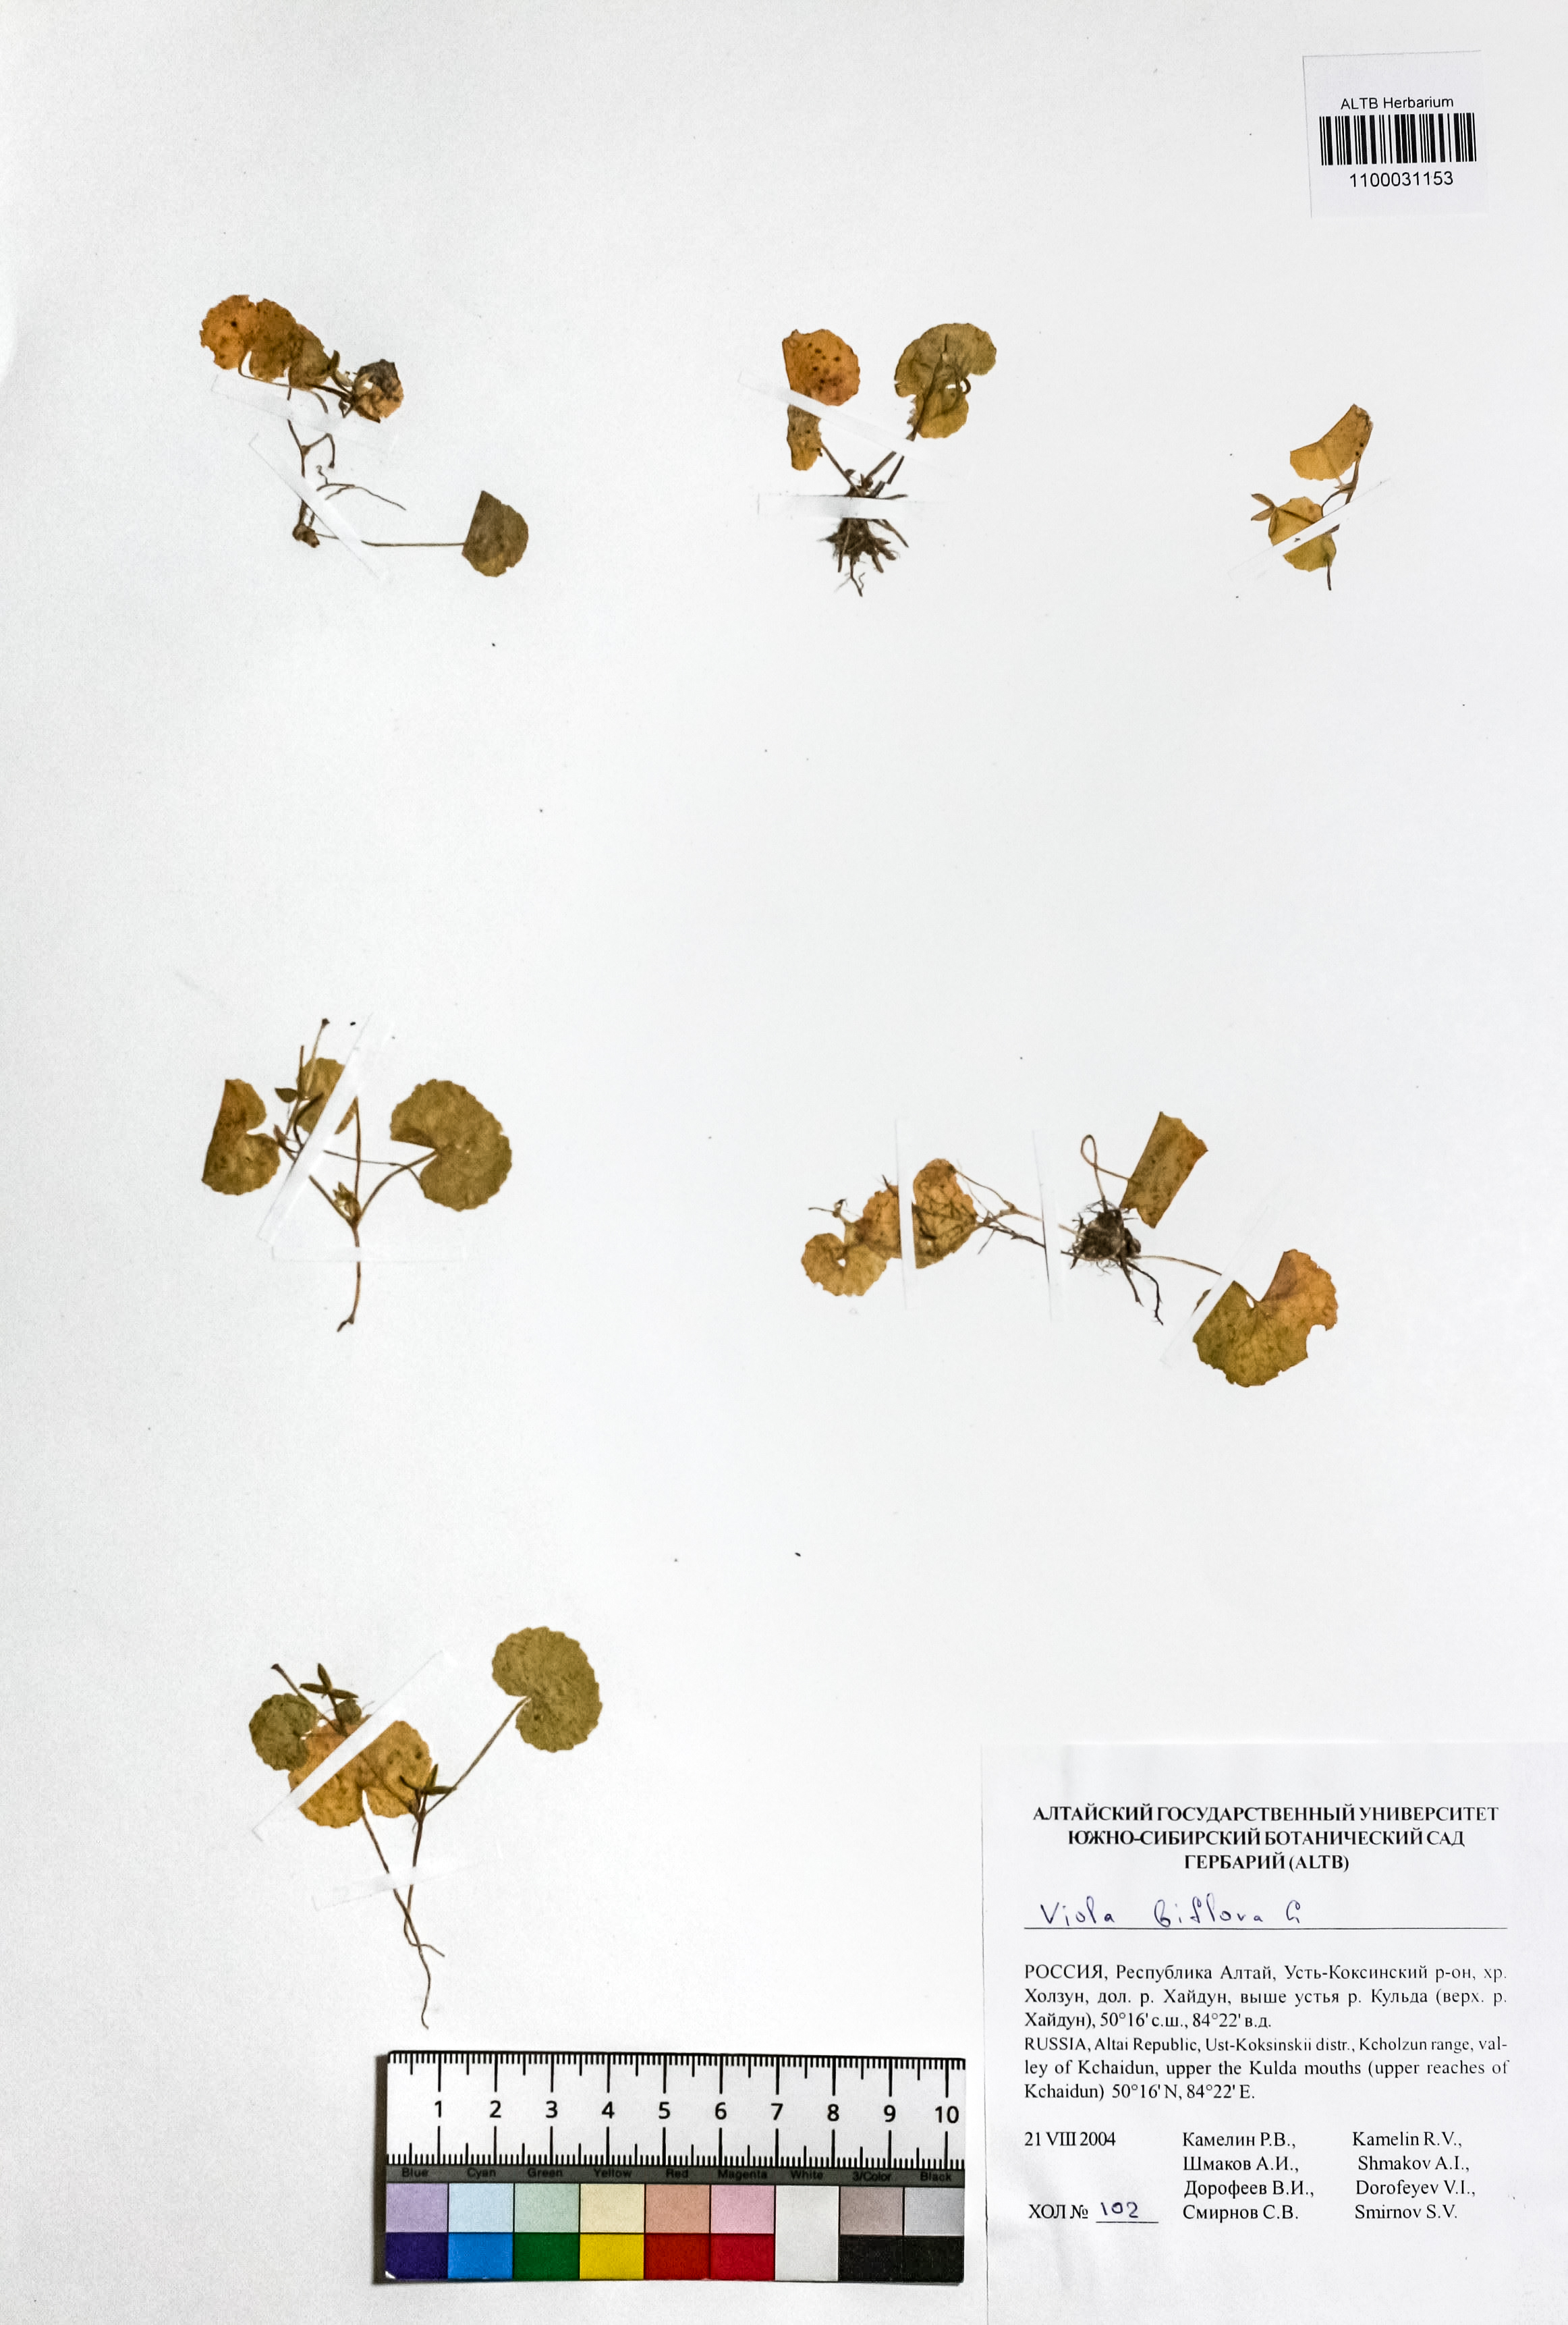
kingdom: Plantae
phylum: Tracheophyta
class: Magnoliopsida
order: Malpighiales
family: Violaceae
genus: Viola
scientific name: Viola biflora
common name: Alpine yellow violet
